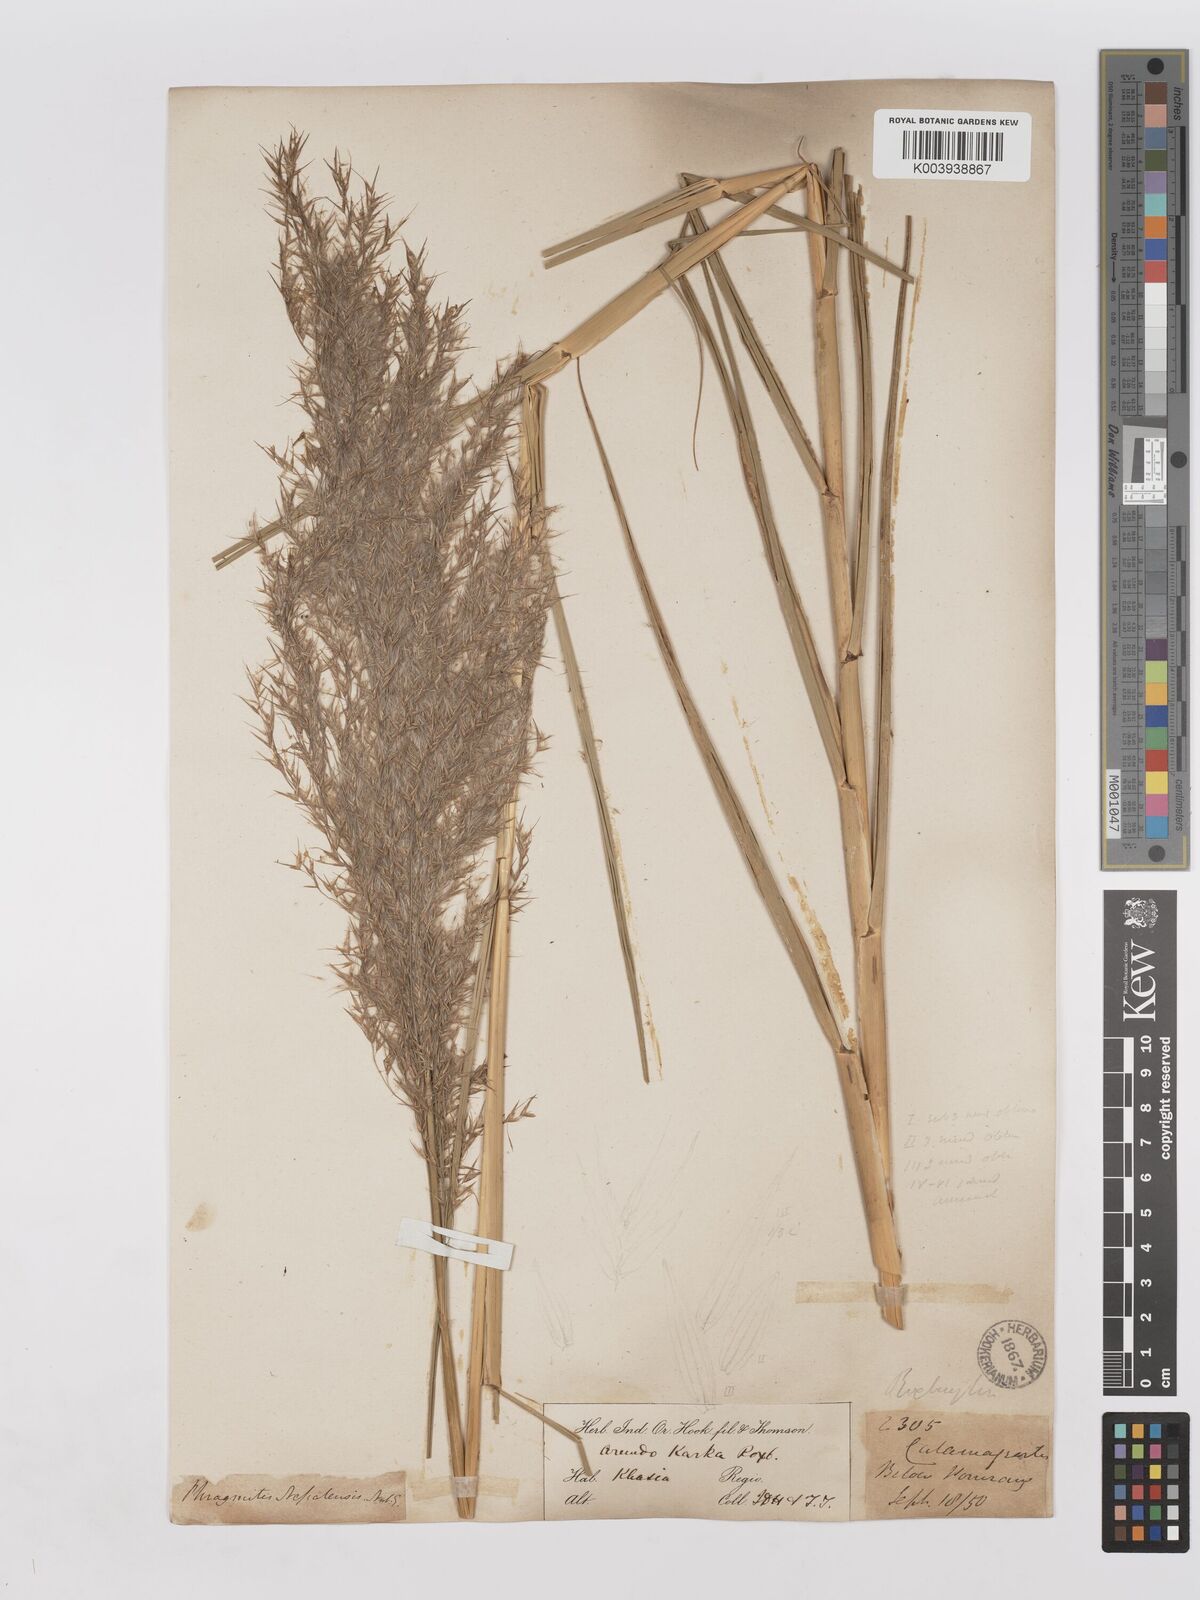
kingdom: Plantae
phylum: Tracheophyta
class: Liliopsida
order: Poales
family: Poaceae
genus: Phragmites
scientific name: Phragmites karka
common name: Tropical reed
